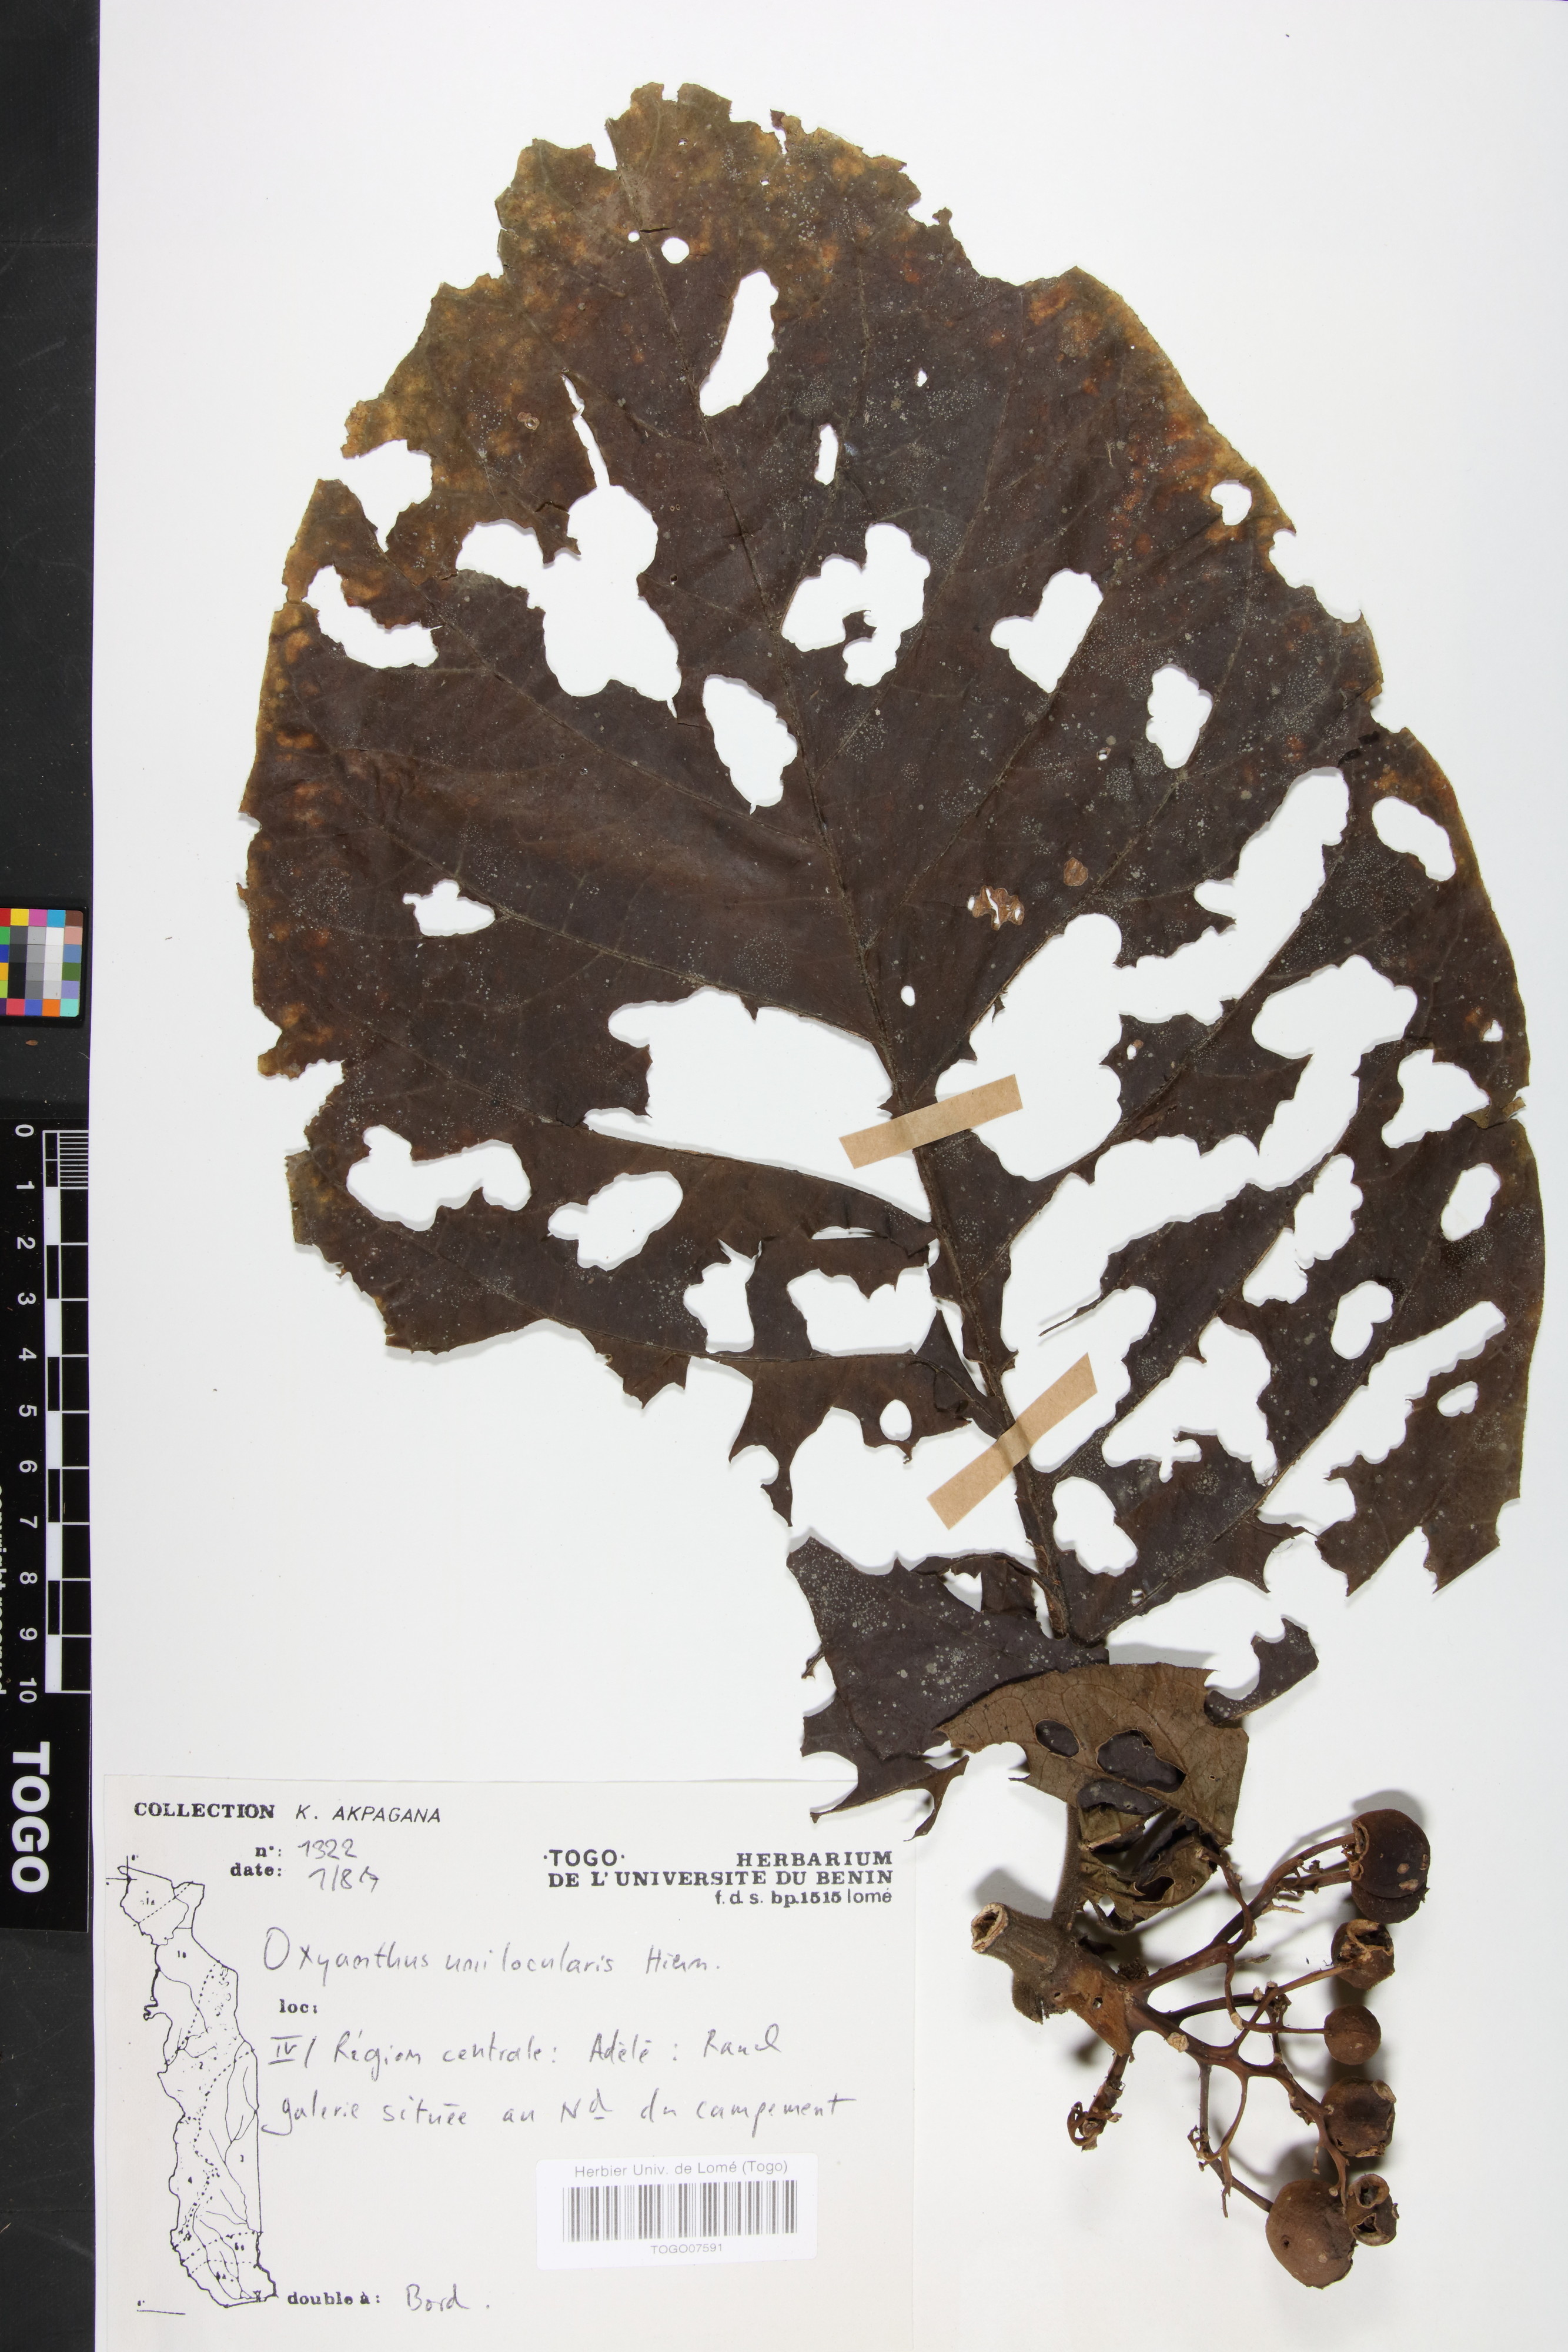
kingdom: Plantae
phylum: Tracheophyta
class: Magnoliopsida
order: Gentianales
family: Rubiaceae
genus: Oxyanthus
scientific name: Oxyanthus unilocularis
